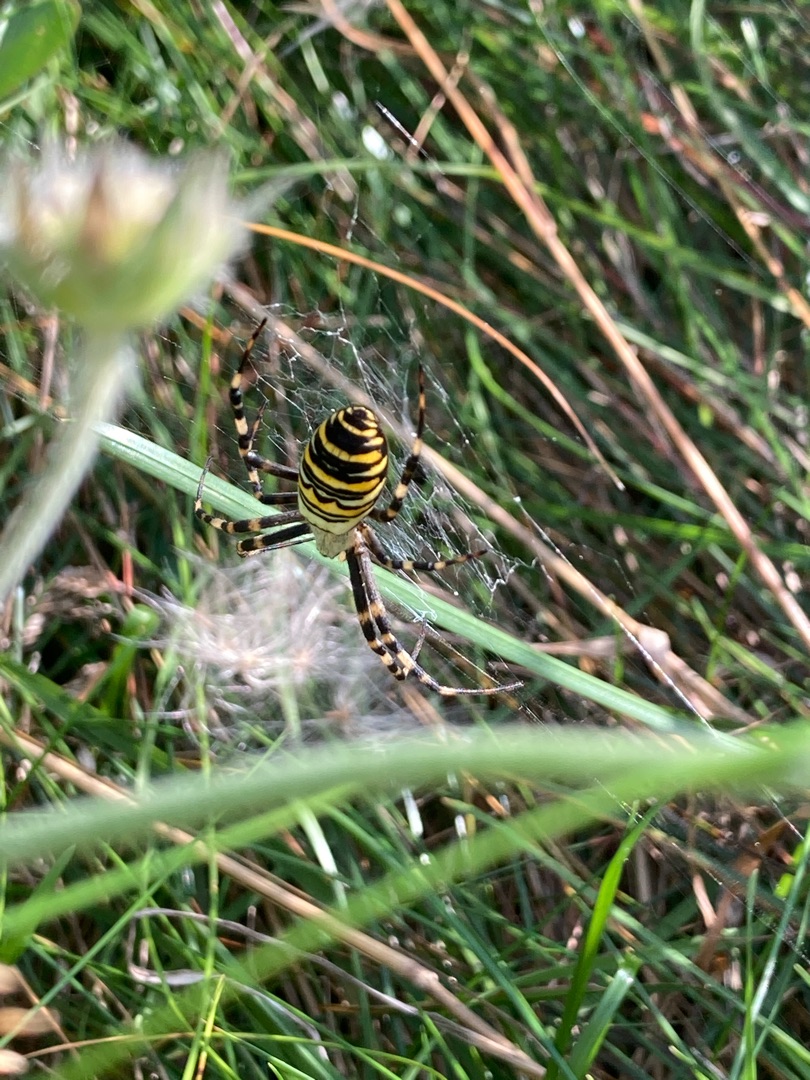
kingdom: Animalia
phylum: Arthropoda
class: Arachnida
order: Araneae
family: Araneidae
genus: Argiope
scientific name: Argiope bruennichi
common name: Hvepseedderkop
